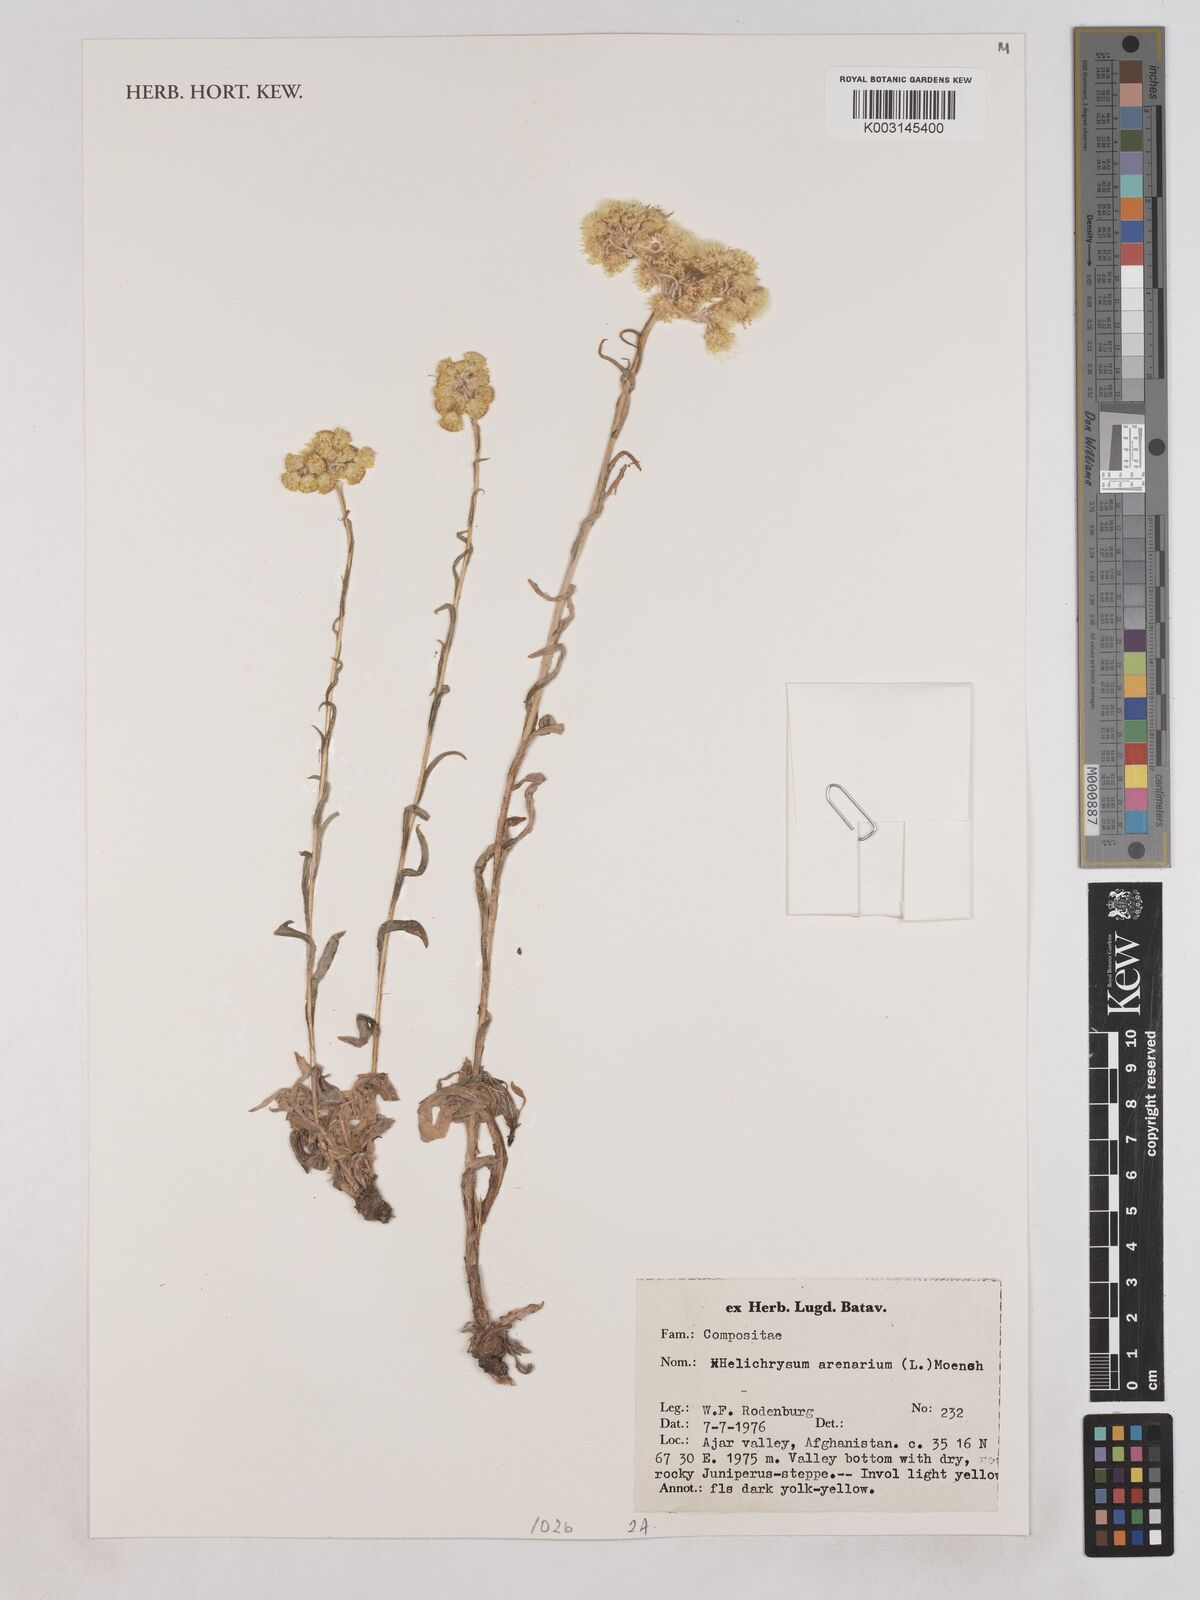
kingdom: Plantae
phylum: Tracheophyta
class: Magnoliopsida
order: Asterales
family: Asteraceae
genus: Helichrysum
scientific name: Helichrysum arenarium
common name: Strawflower
